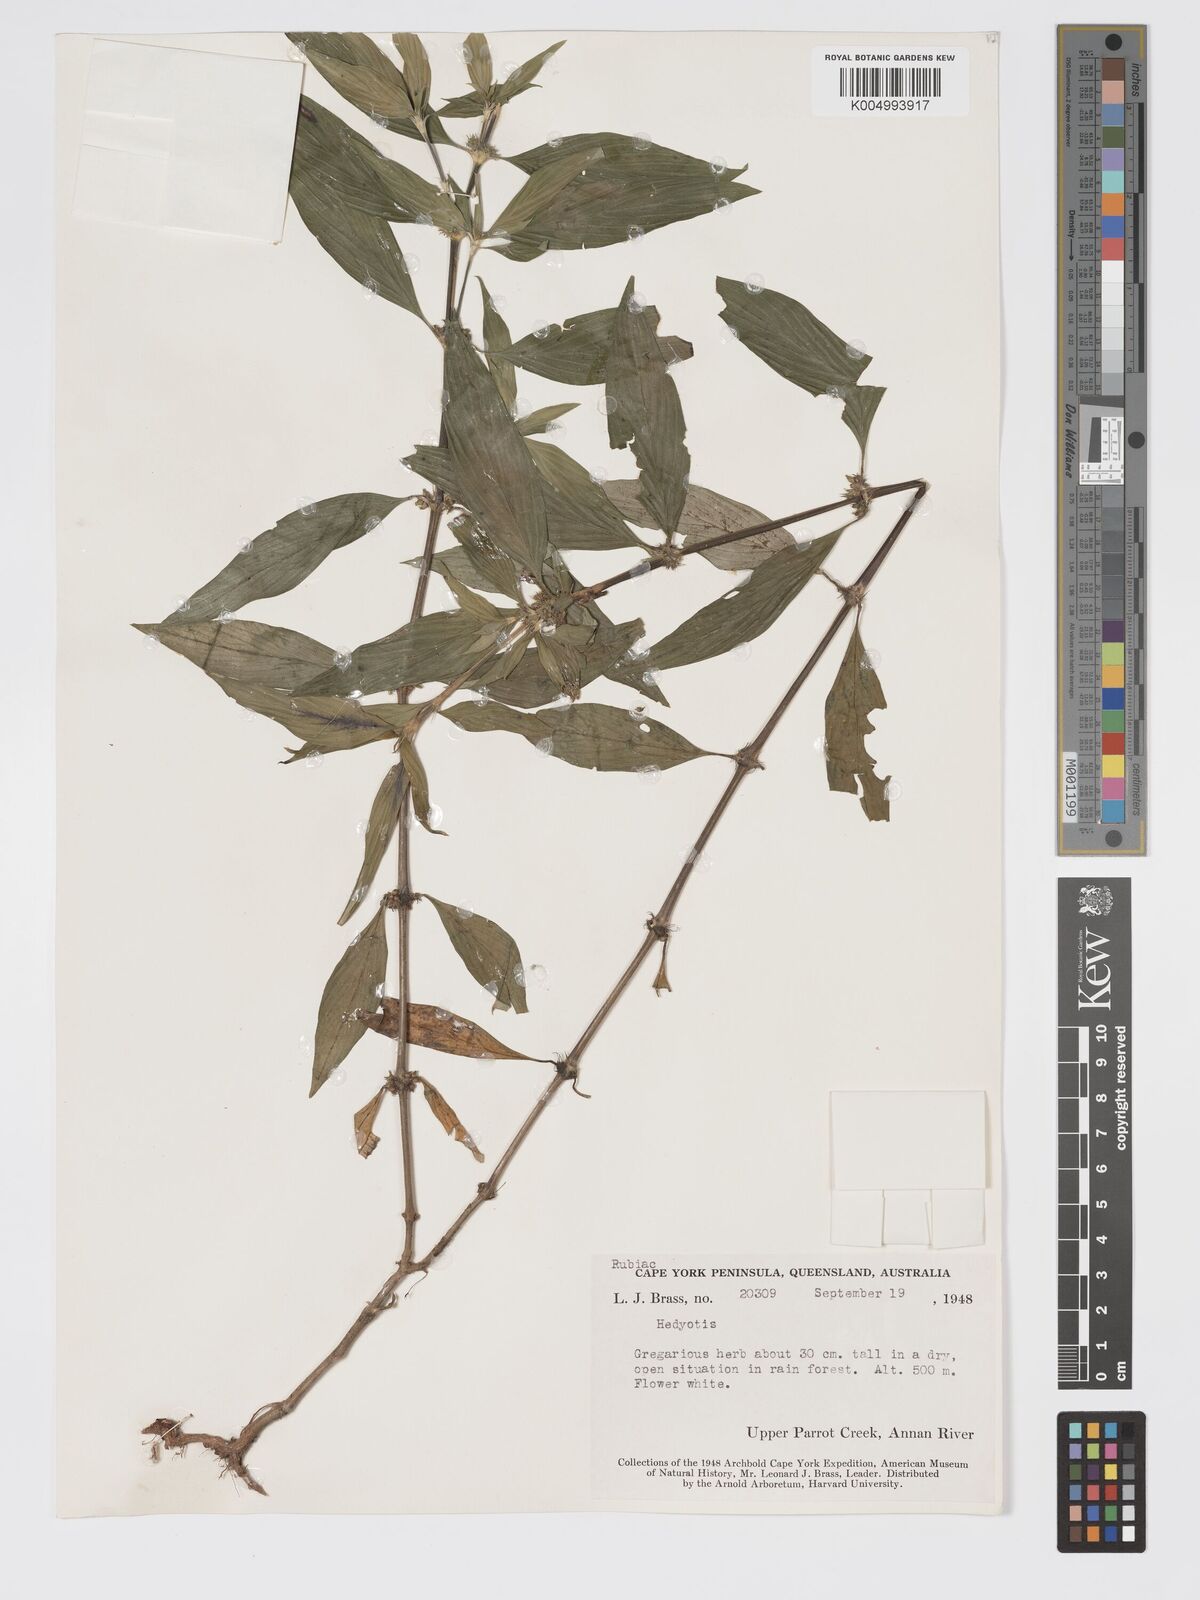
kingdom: Plantae
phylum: Tracheophyta
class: Magnoliopsida
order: Gentianales
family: Rubiaceae
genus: Exallage
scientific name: Exallage lapeyrousei
